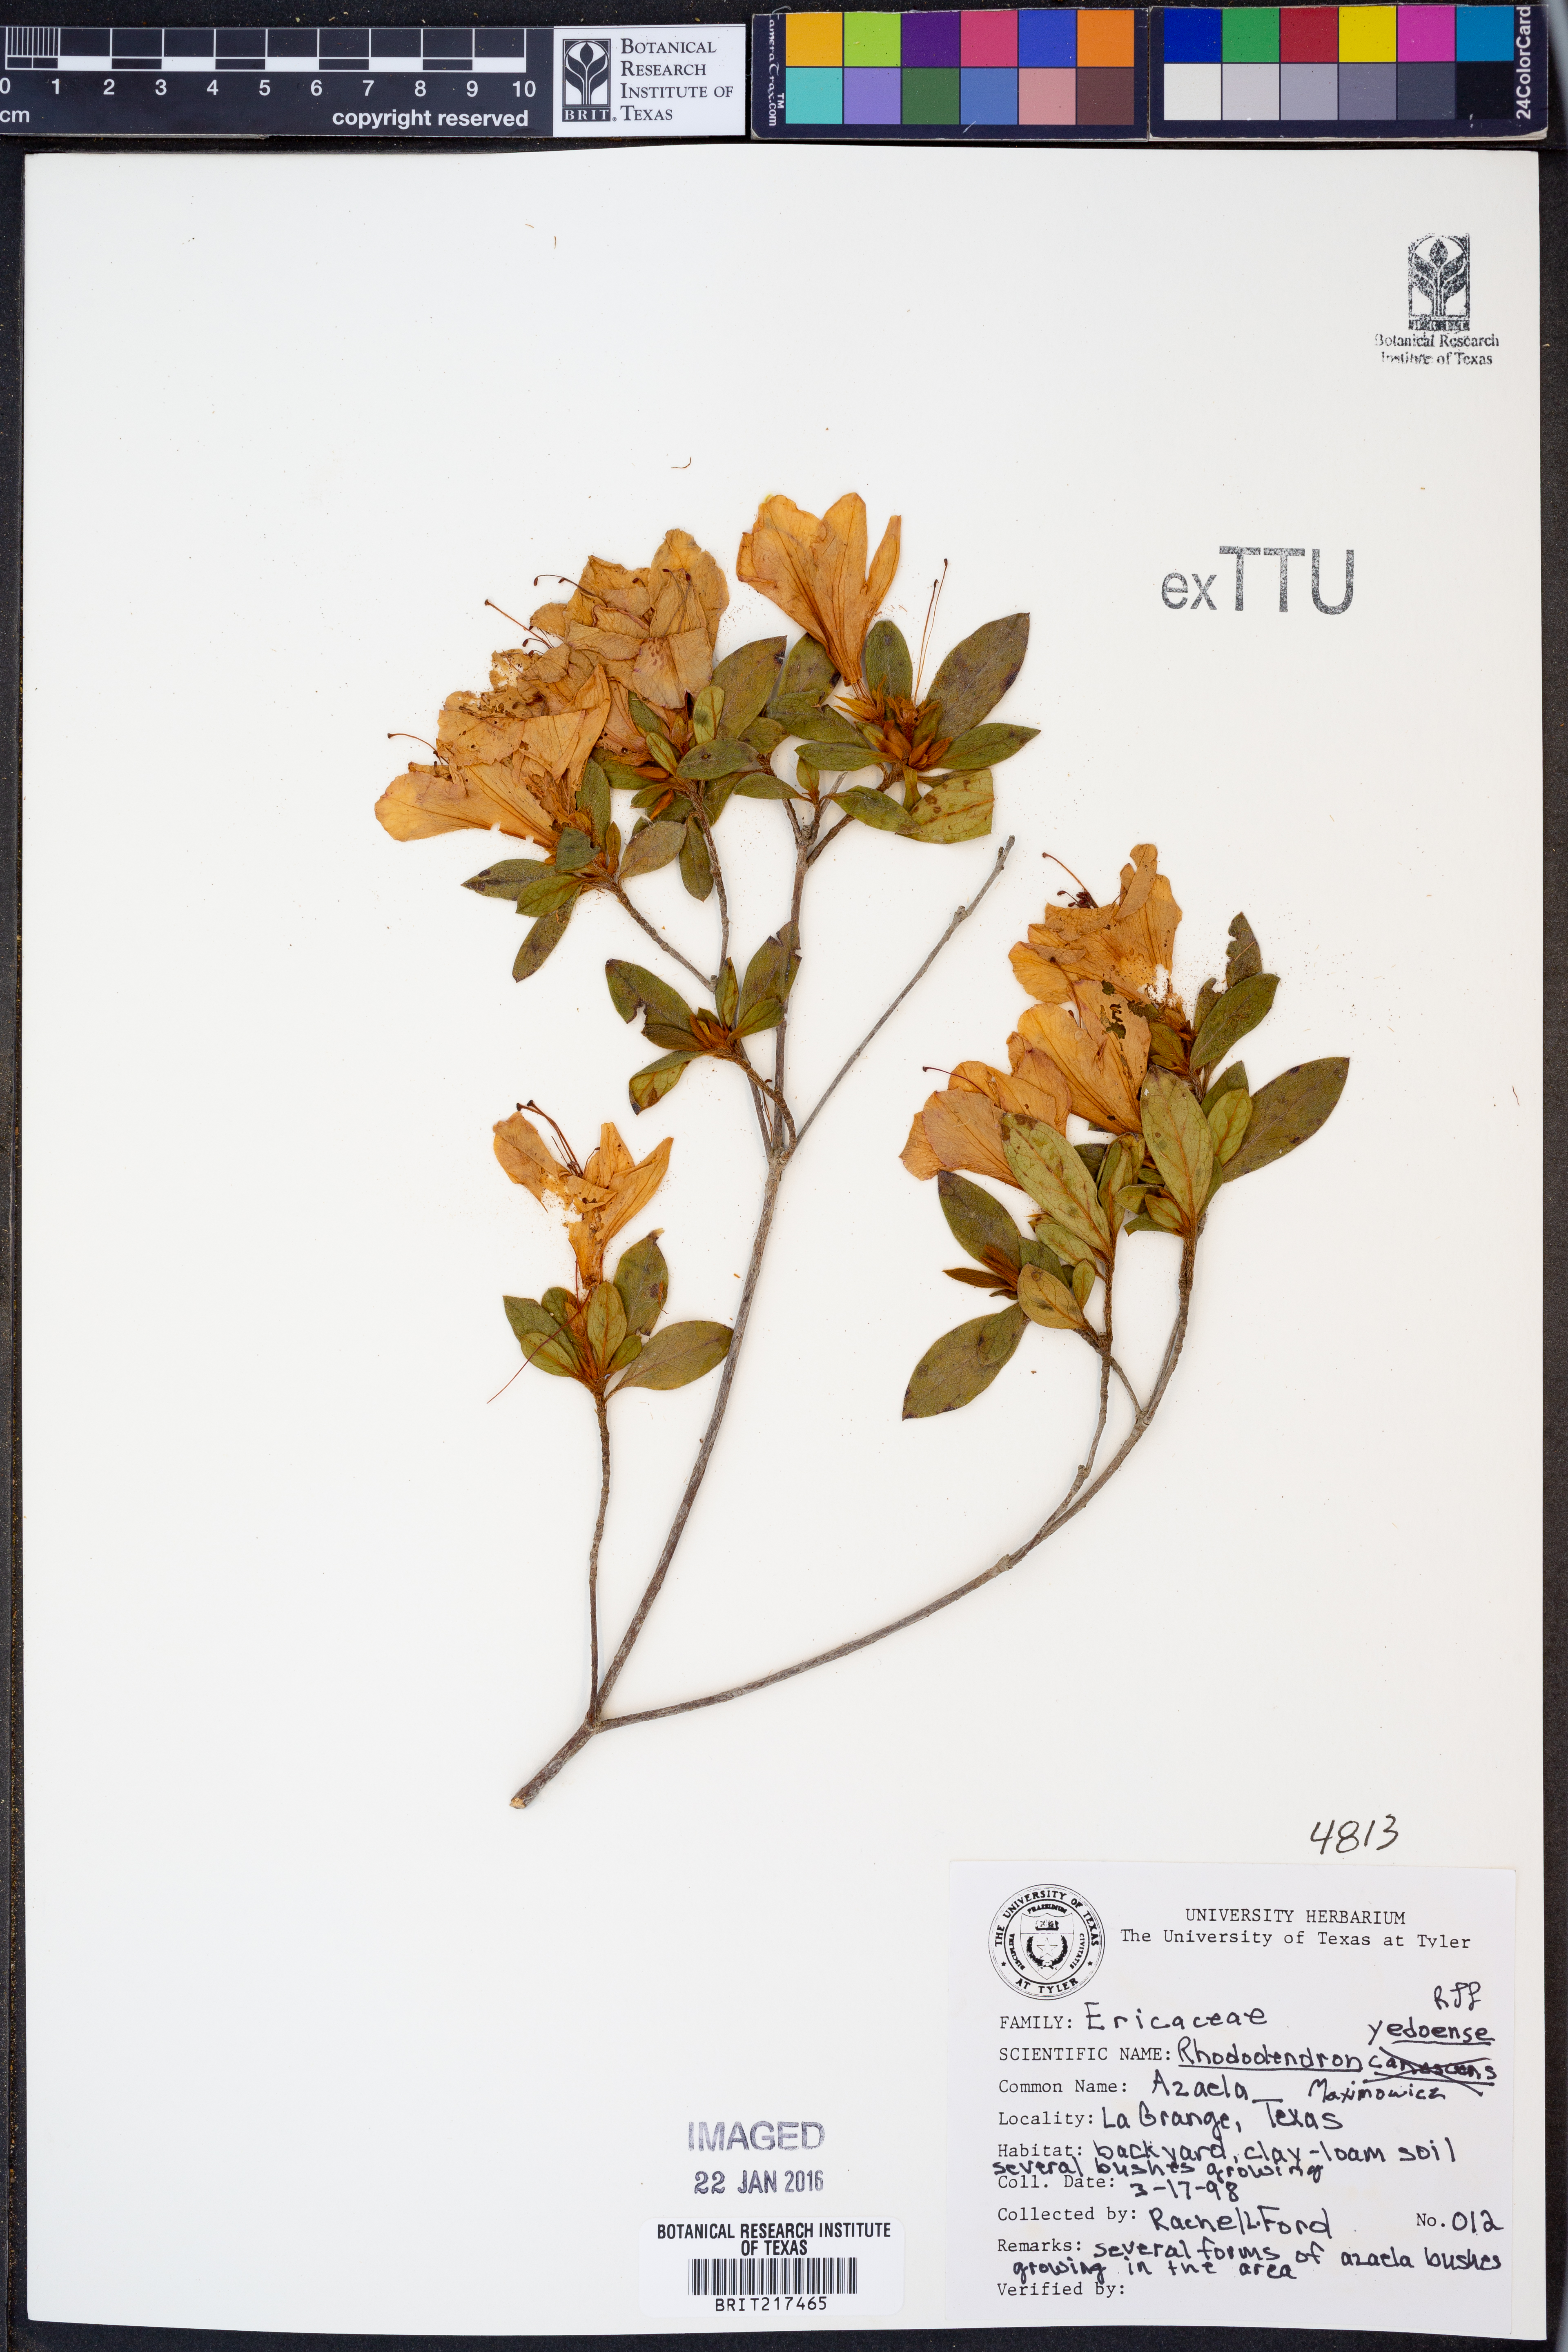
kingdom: Plantae
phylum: Tracheophyta
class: Magnoliopsida
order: Ericales
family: Ericaceae
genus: Rhododendron
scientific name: Rhododendron yedoense
